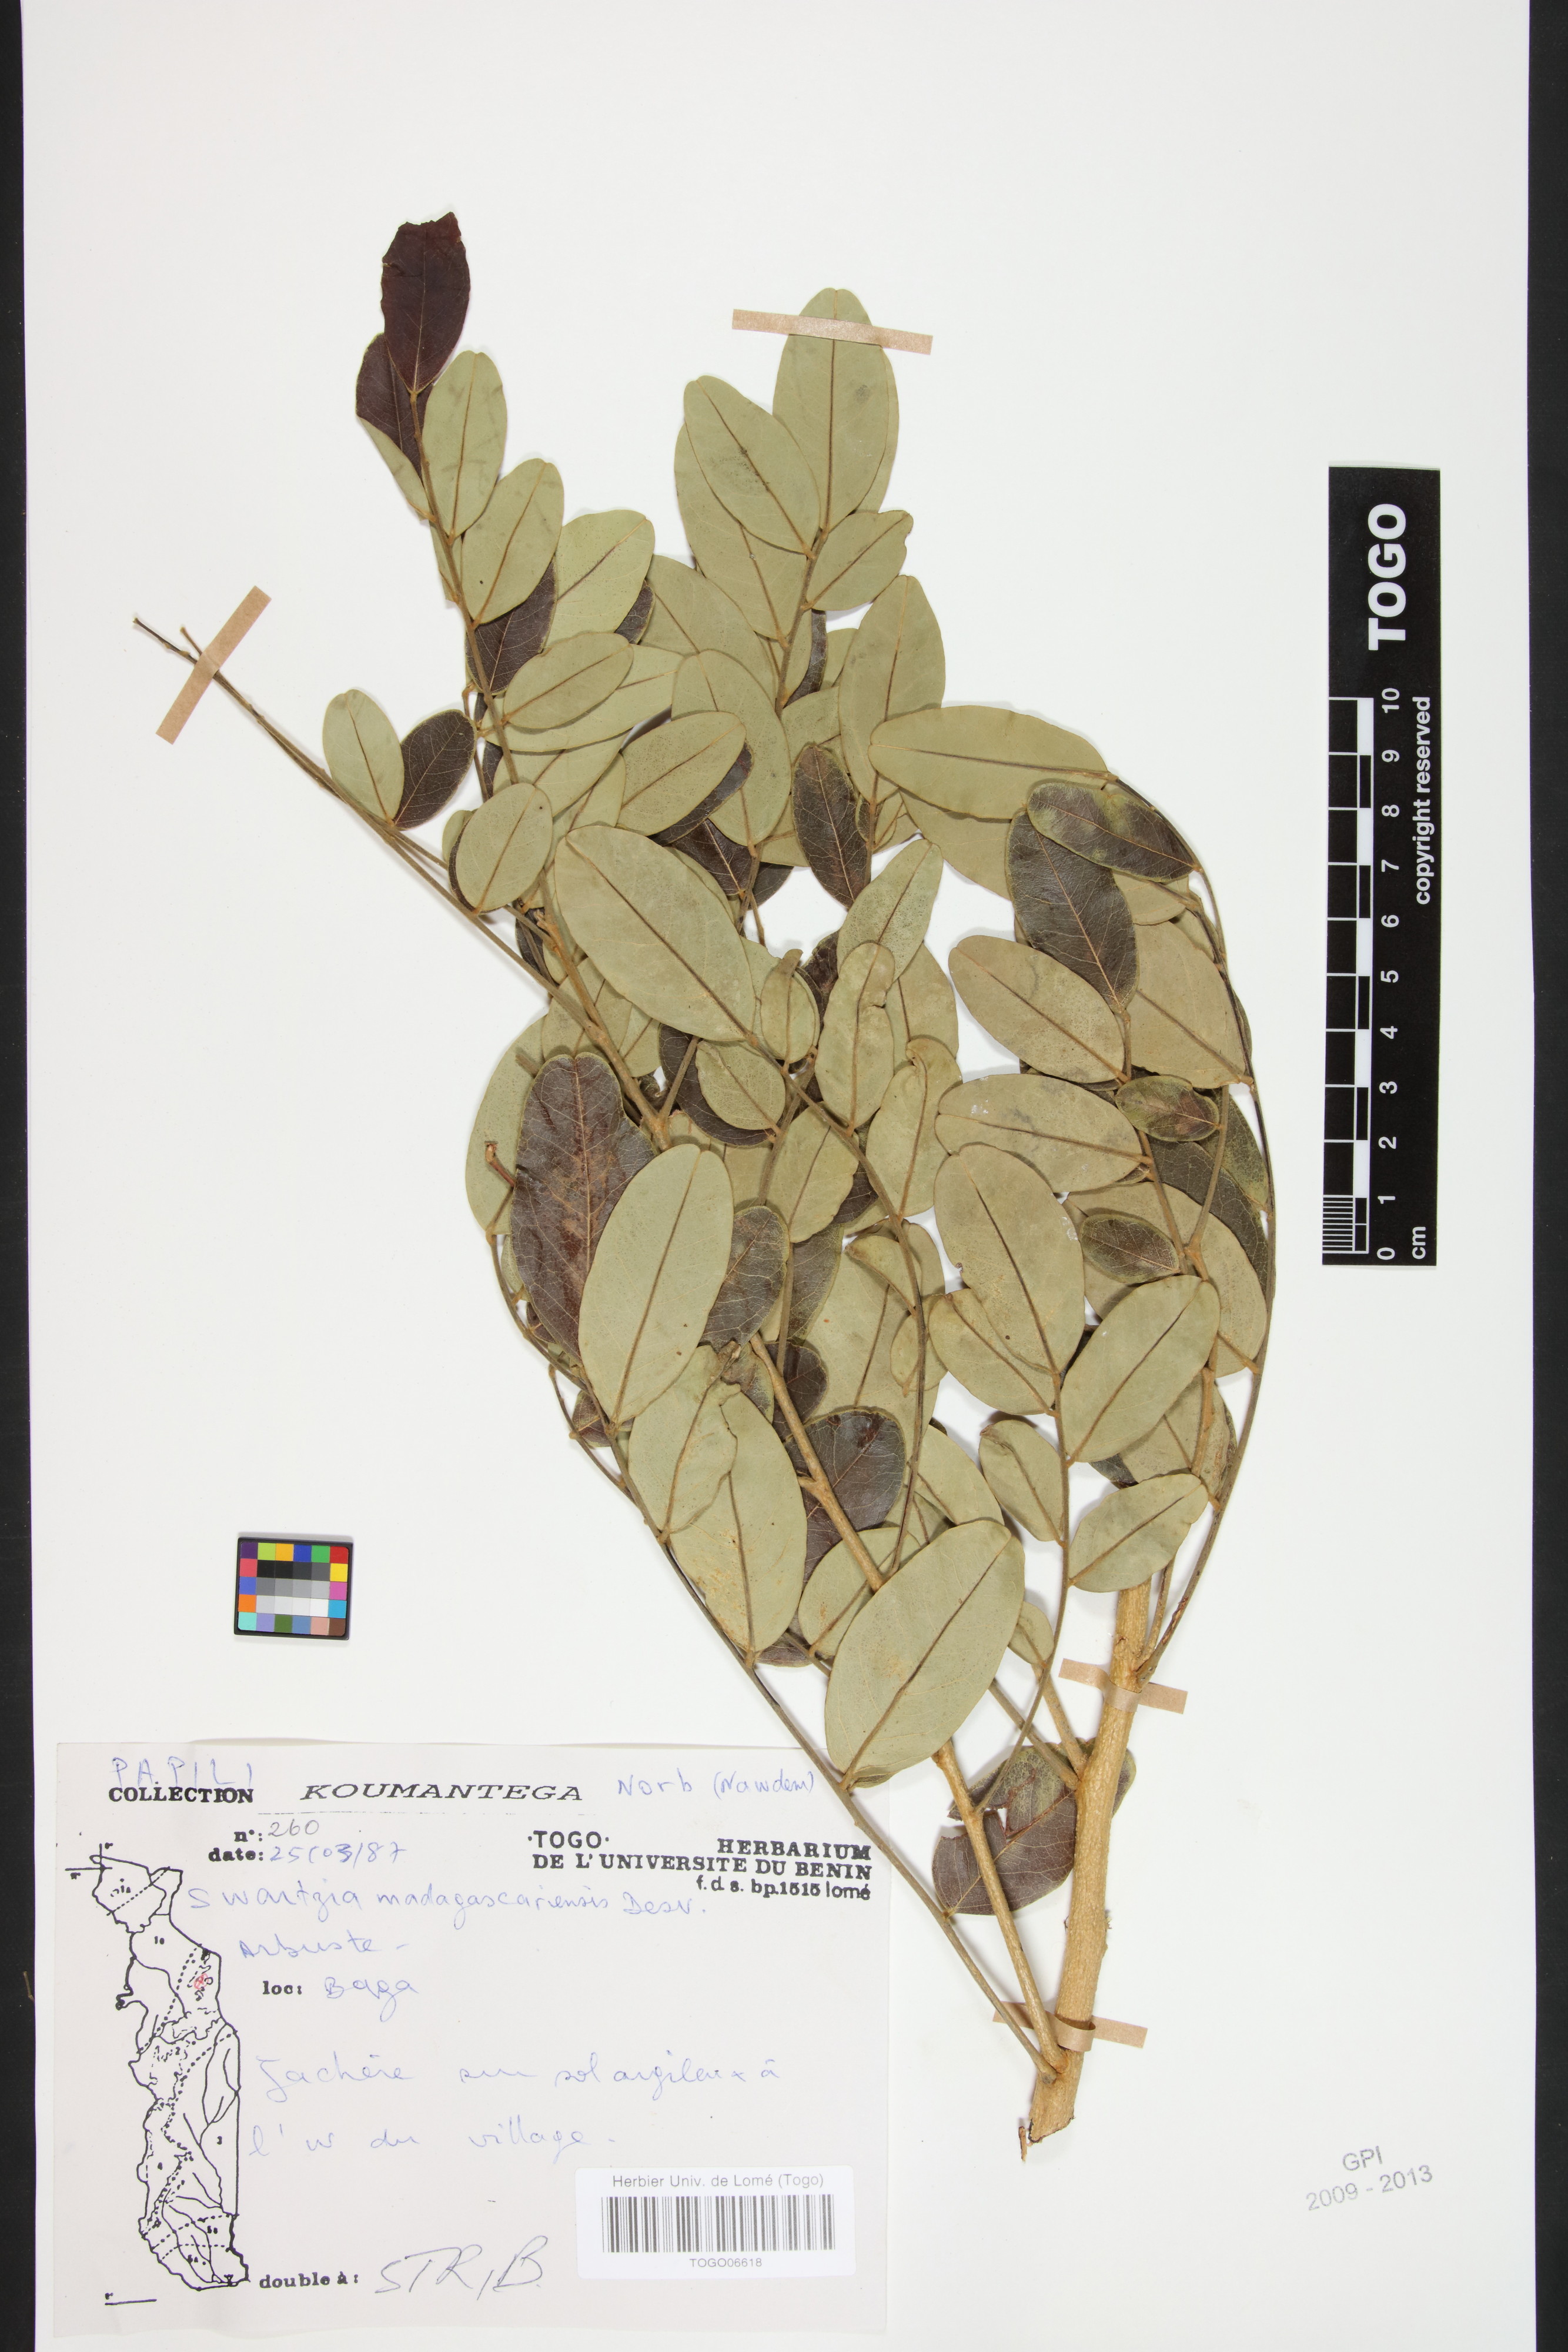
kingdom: Plantae
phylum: Tracheophyta
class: Magnoliopsida
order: Fabales
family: Fabaceae
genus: Bobgunnia
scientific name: Bobgunnia madagascariensis
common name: Snake bean plant
